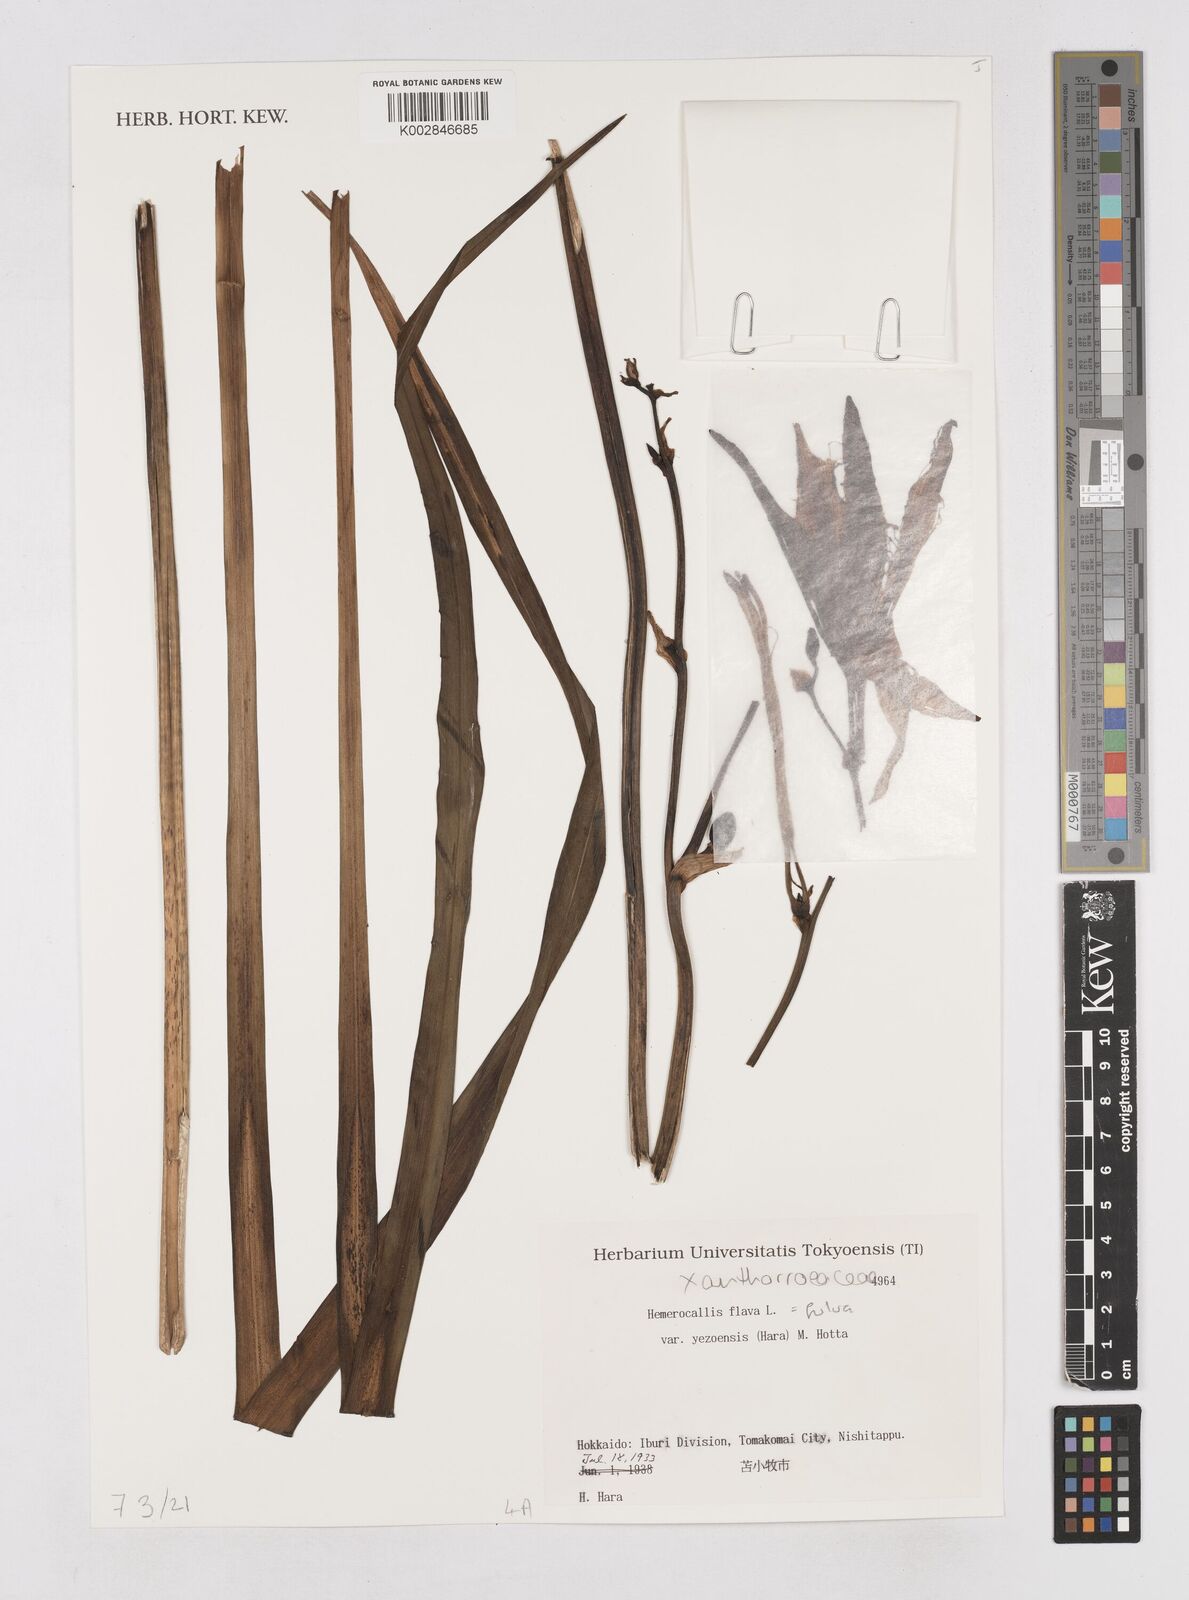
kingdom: Plantae
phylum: Tracheophyta
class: Liliopsida
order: Asparagales
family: Asphodelaceae
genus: Hemerocallis
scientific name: Hemerocallis fulva
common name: Orange day-lily
